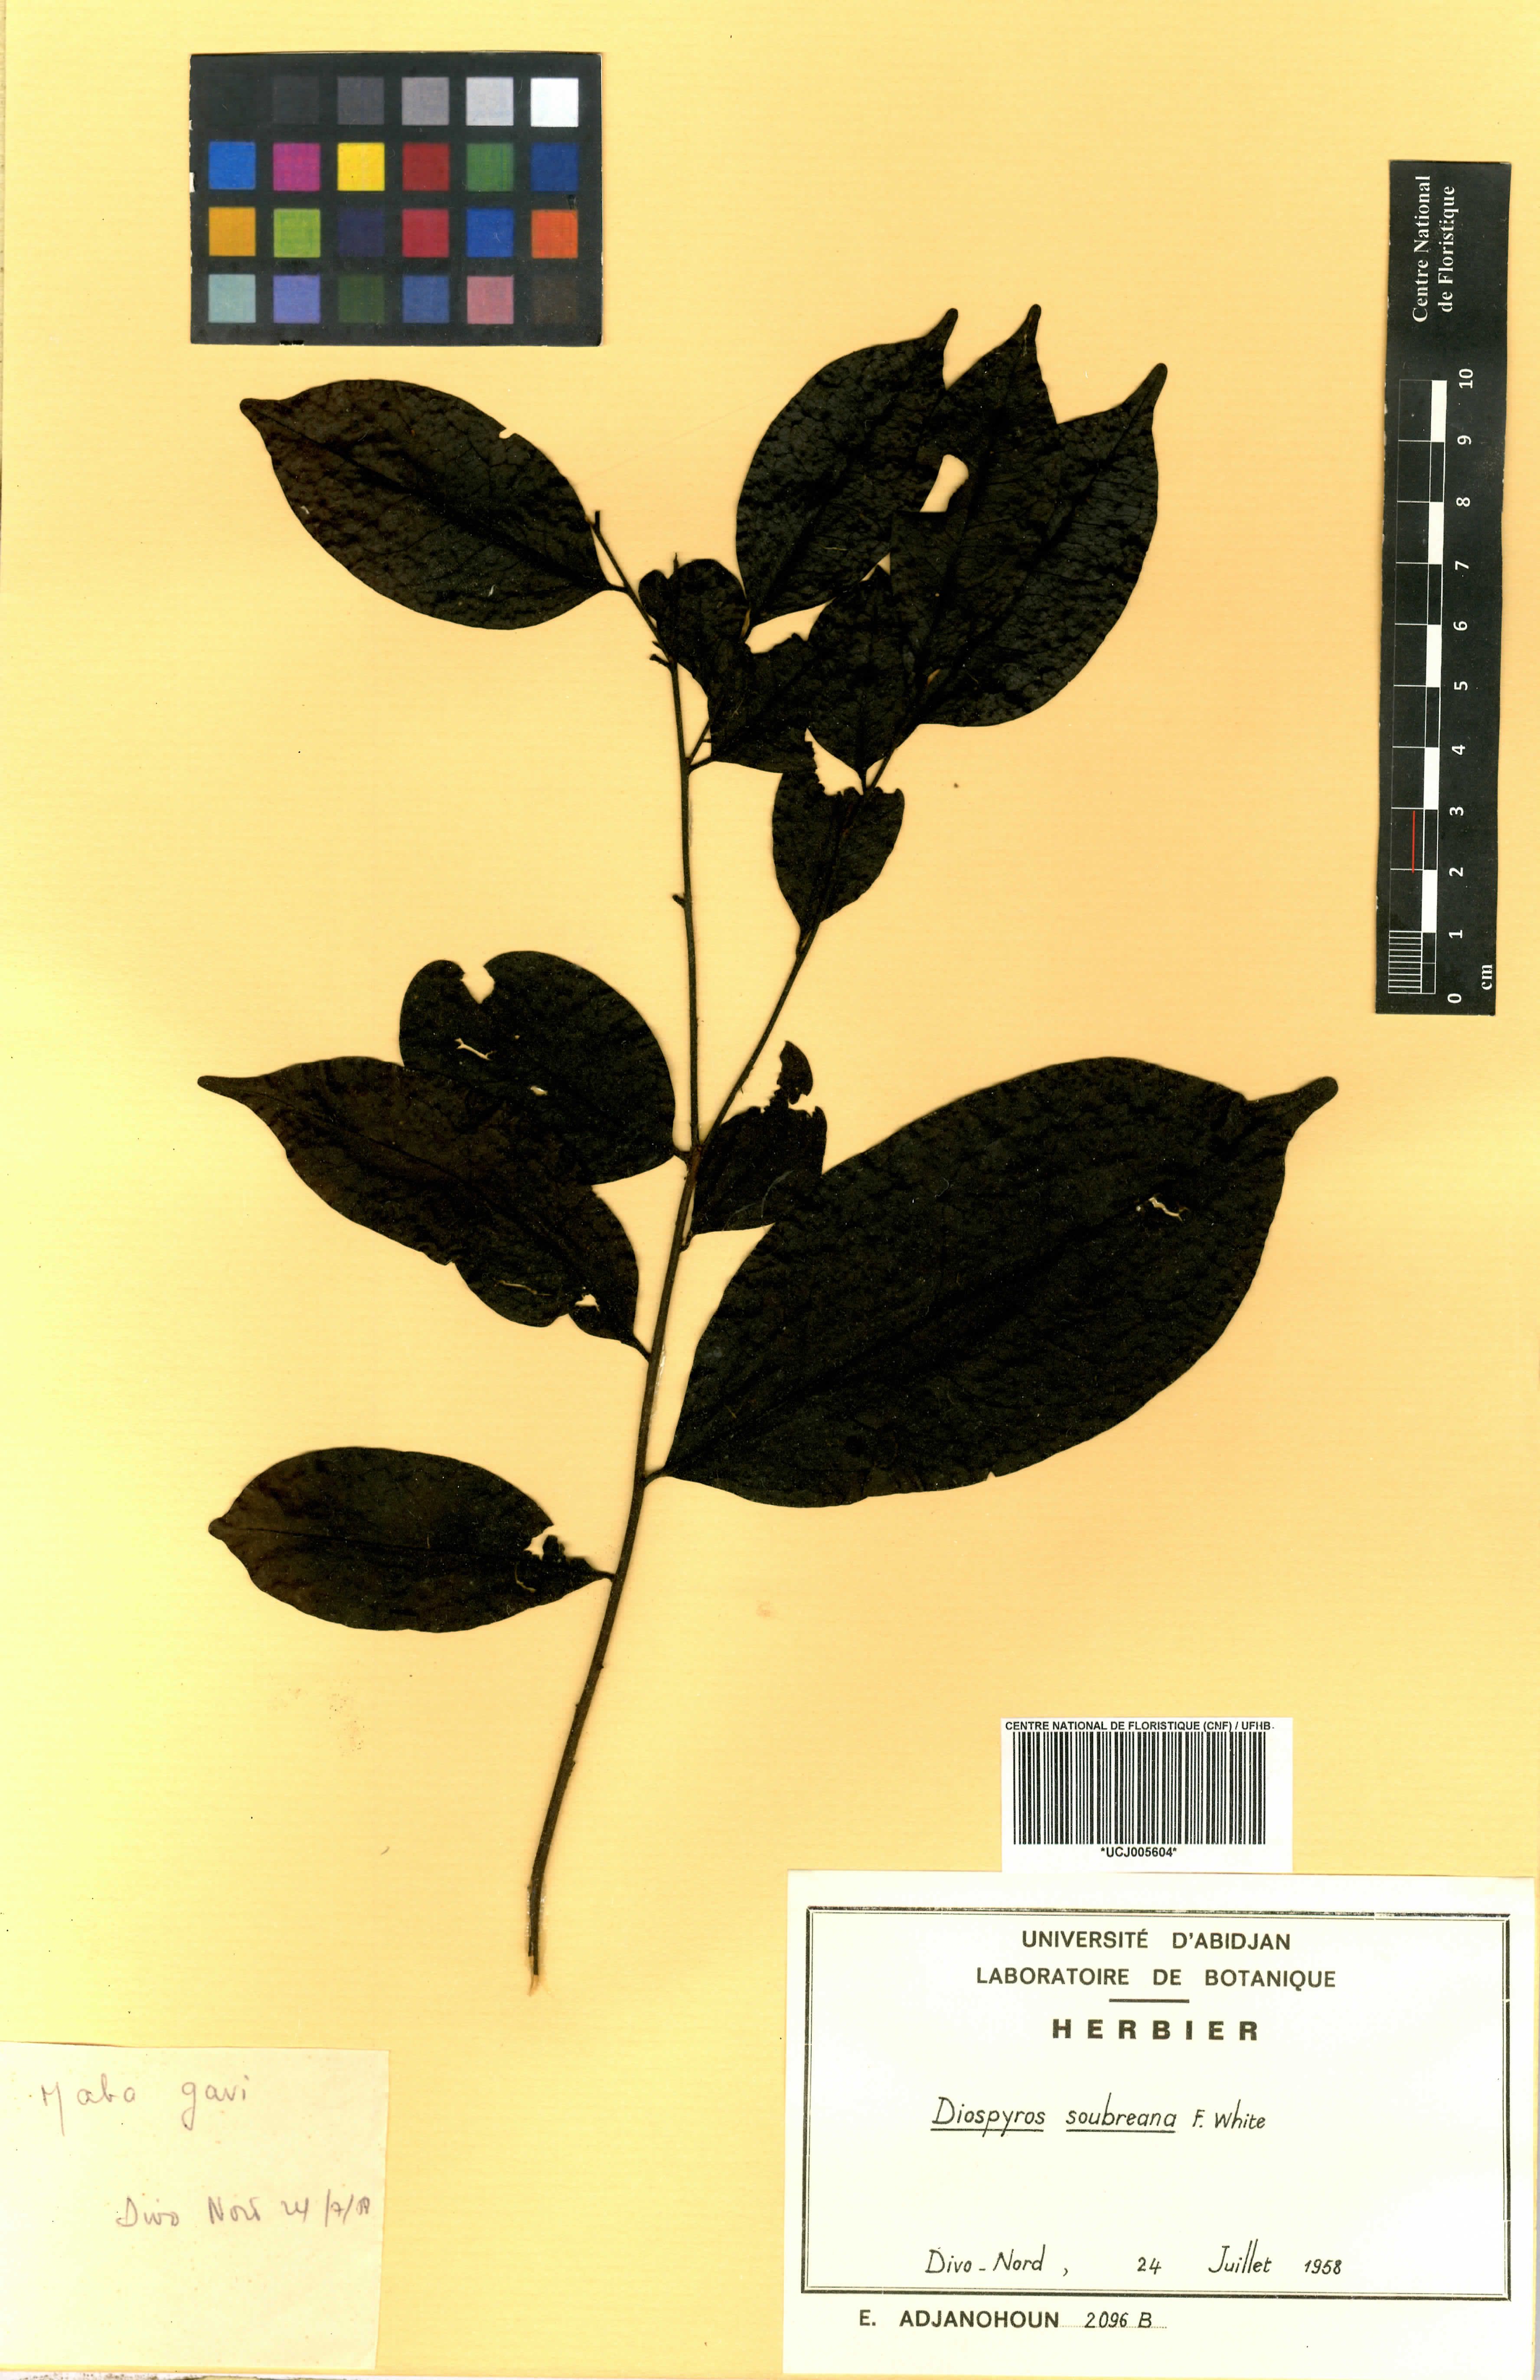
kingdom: Plantae
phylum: Tracheophyta
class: Magnoliopsida
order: Ericales
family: Ebenaceae
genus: Diospyros
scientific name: Diospyros soubreana
